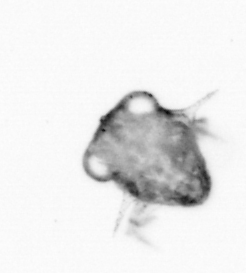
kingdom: Animalia
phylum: Arthropoda
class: Copepoda
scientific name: Copepoda
